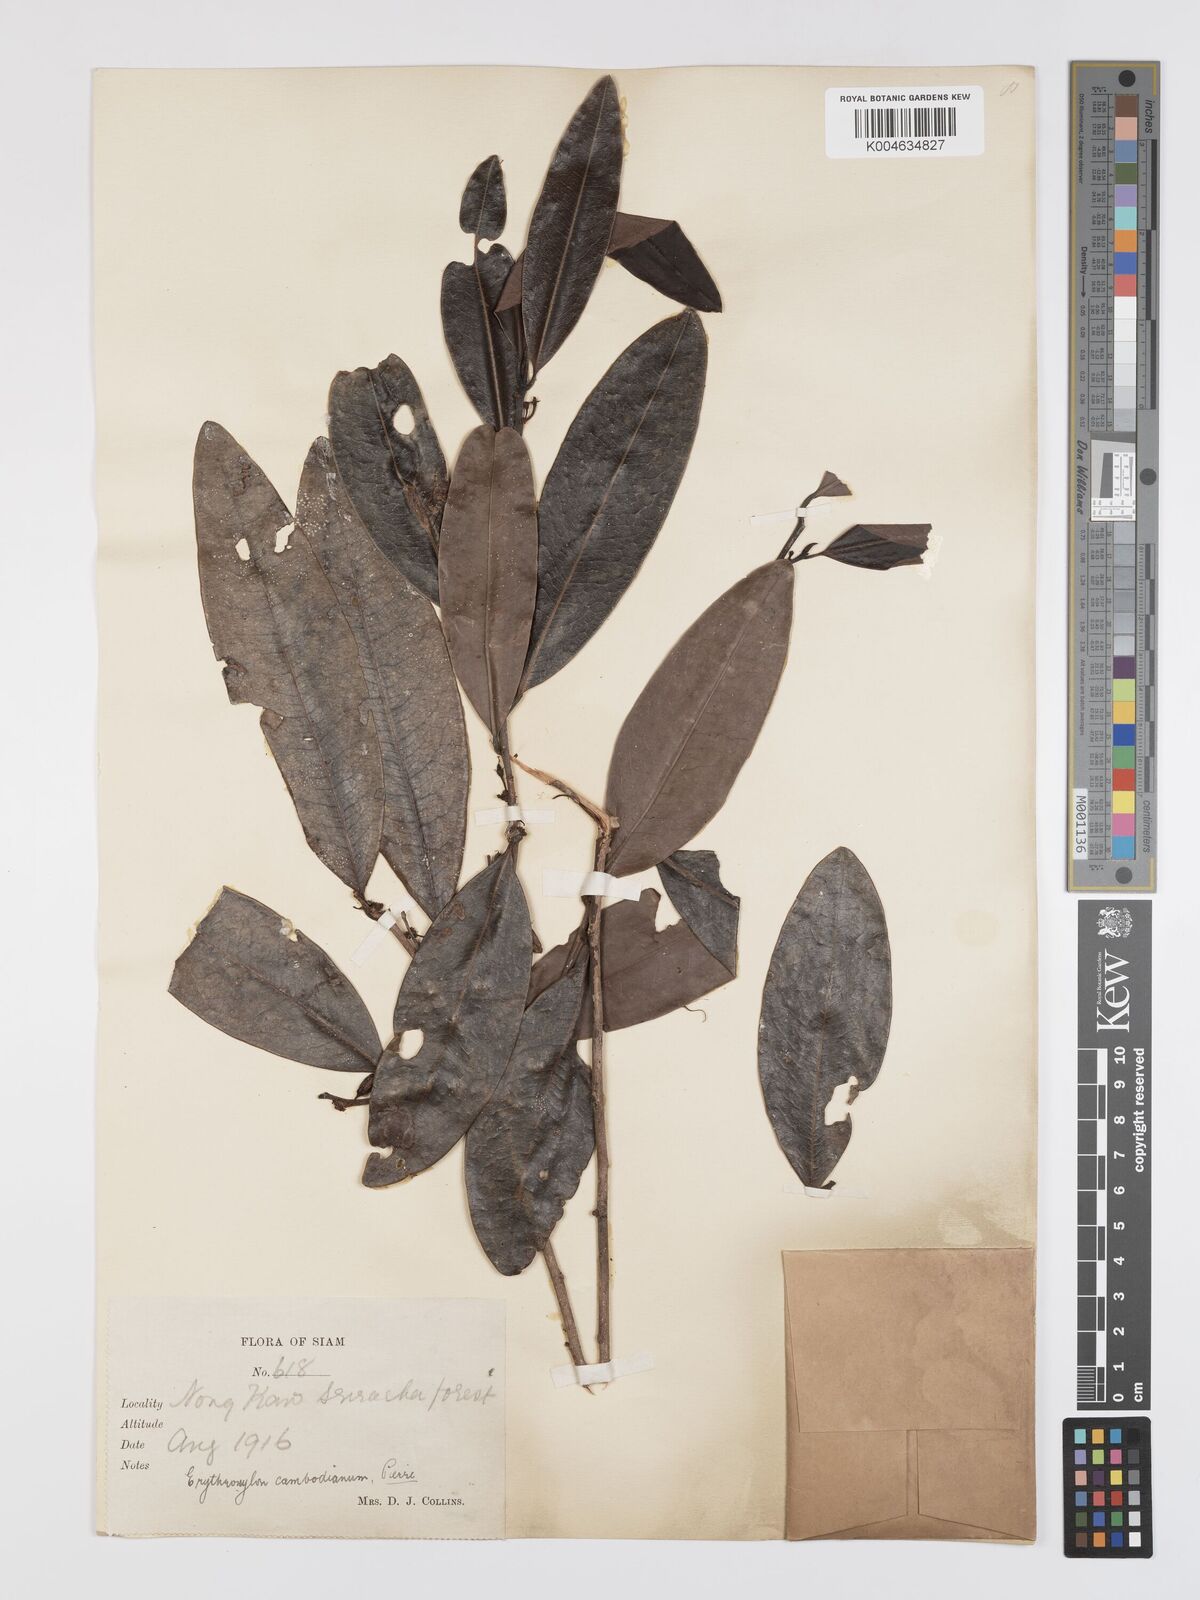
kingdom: Plantae
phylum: Tracheophyta
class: Magnoliopsida
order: Malpighiales
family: Erythroxylaceae
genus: Erythroxylum
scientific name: Erythroxylum cambodianum
